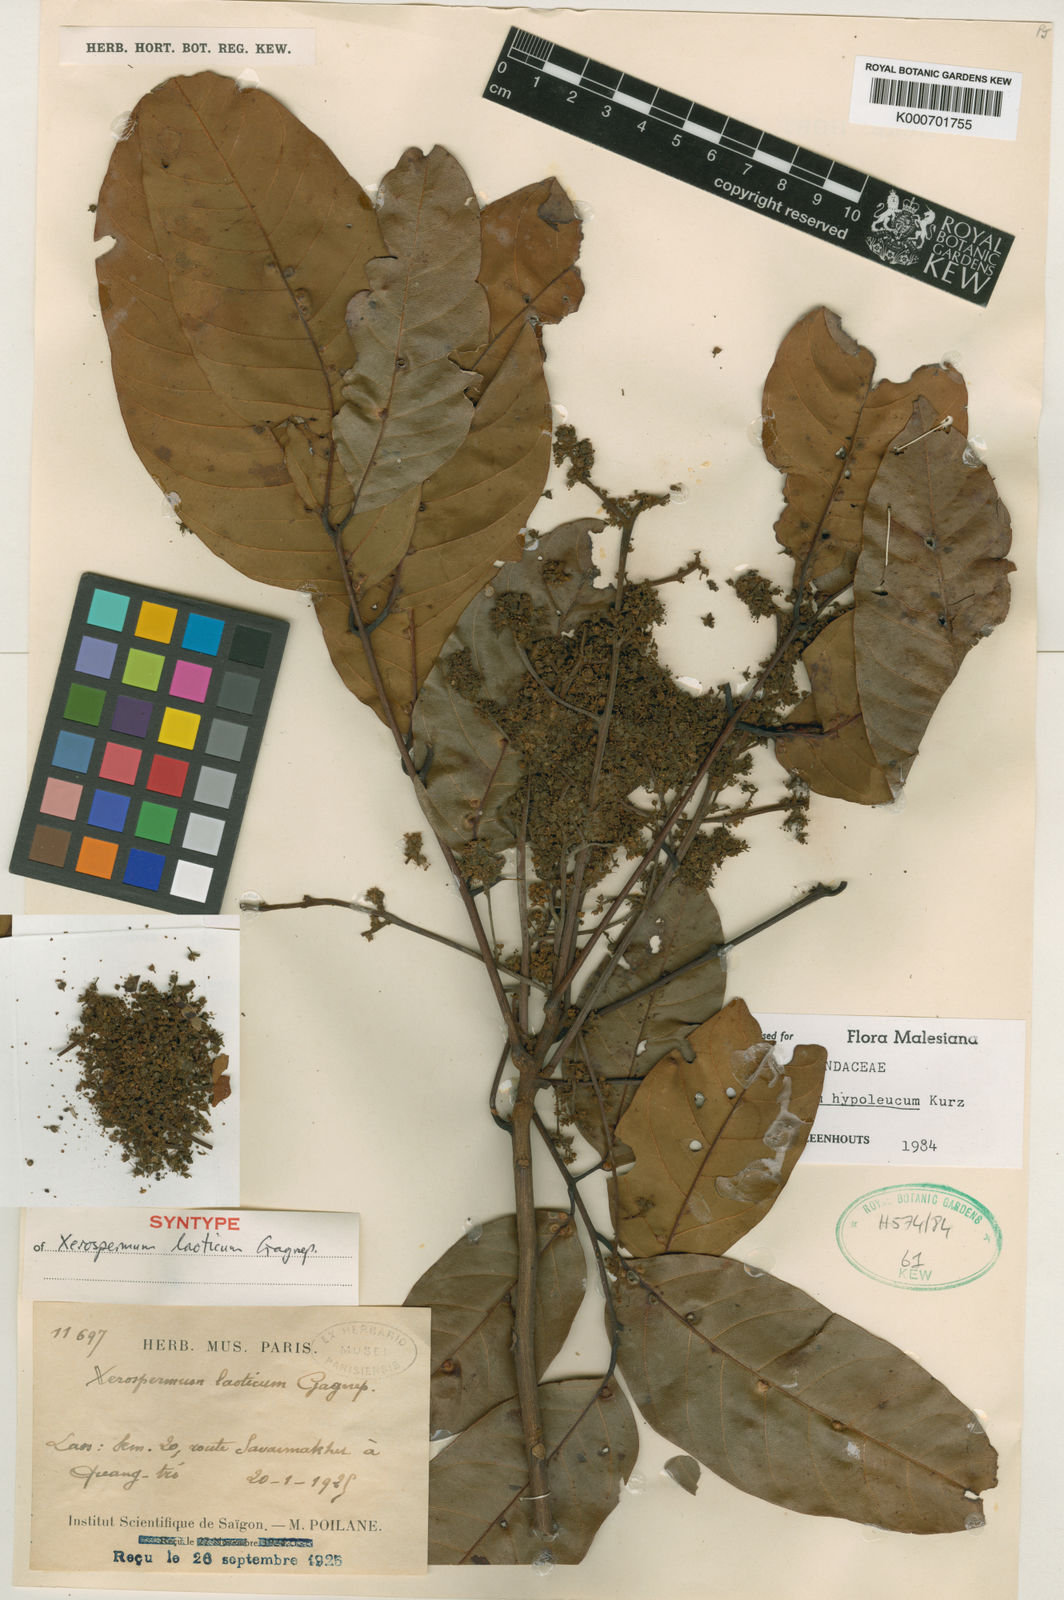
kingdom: Plantae
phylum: Tracheophyta
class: Magnoliopsida
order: Sapindales
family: Sapindaceae
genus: Nephelium
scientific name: Nephelium hypoleucum
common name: Korlan
